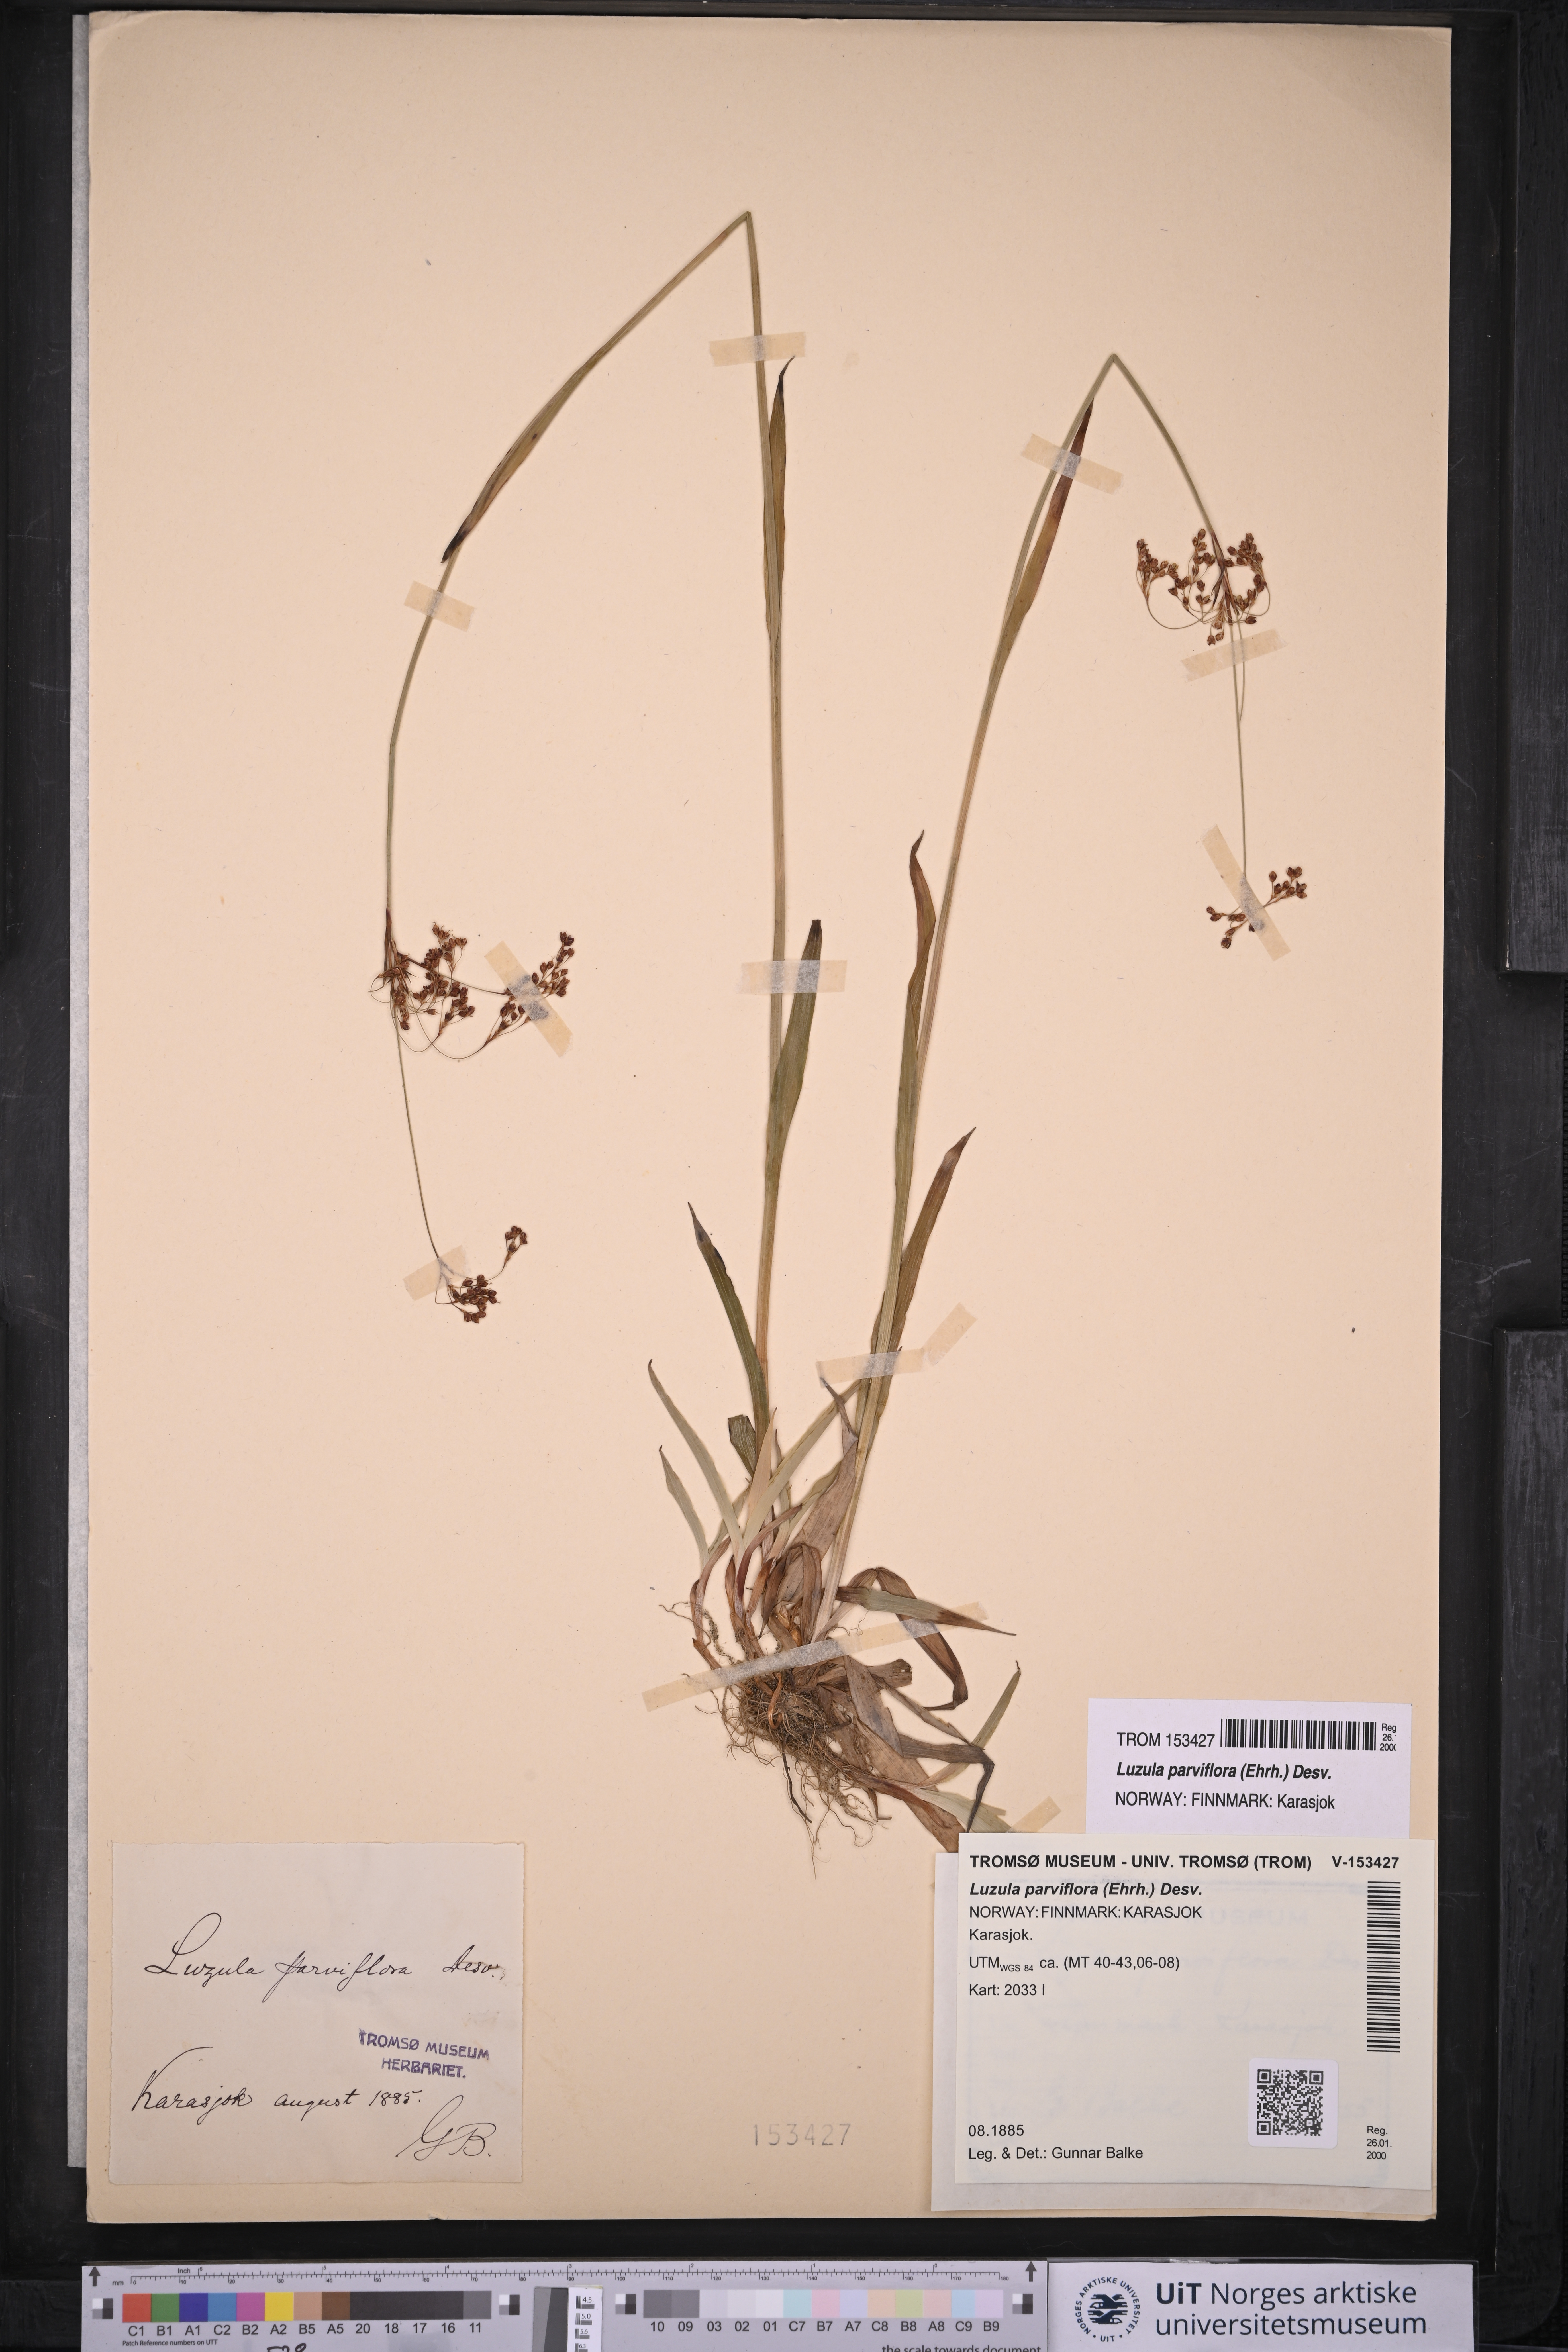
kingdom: Plantae
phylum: Tracheophyta
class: Liliopsida
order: Poales
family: Juncaceae
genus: Luzula
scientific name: Luzula parviflora
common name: Millet woodrush
